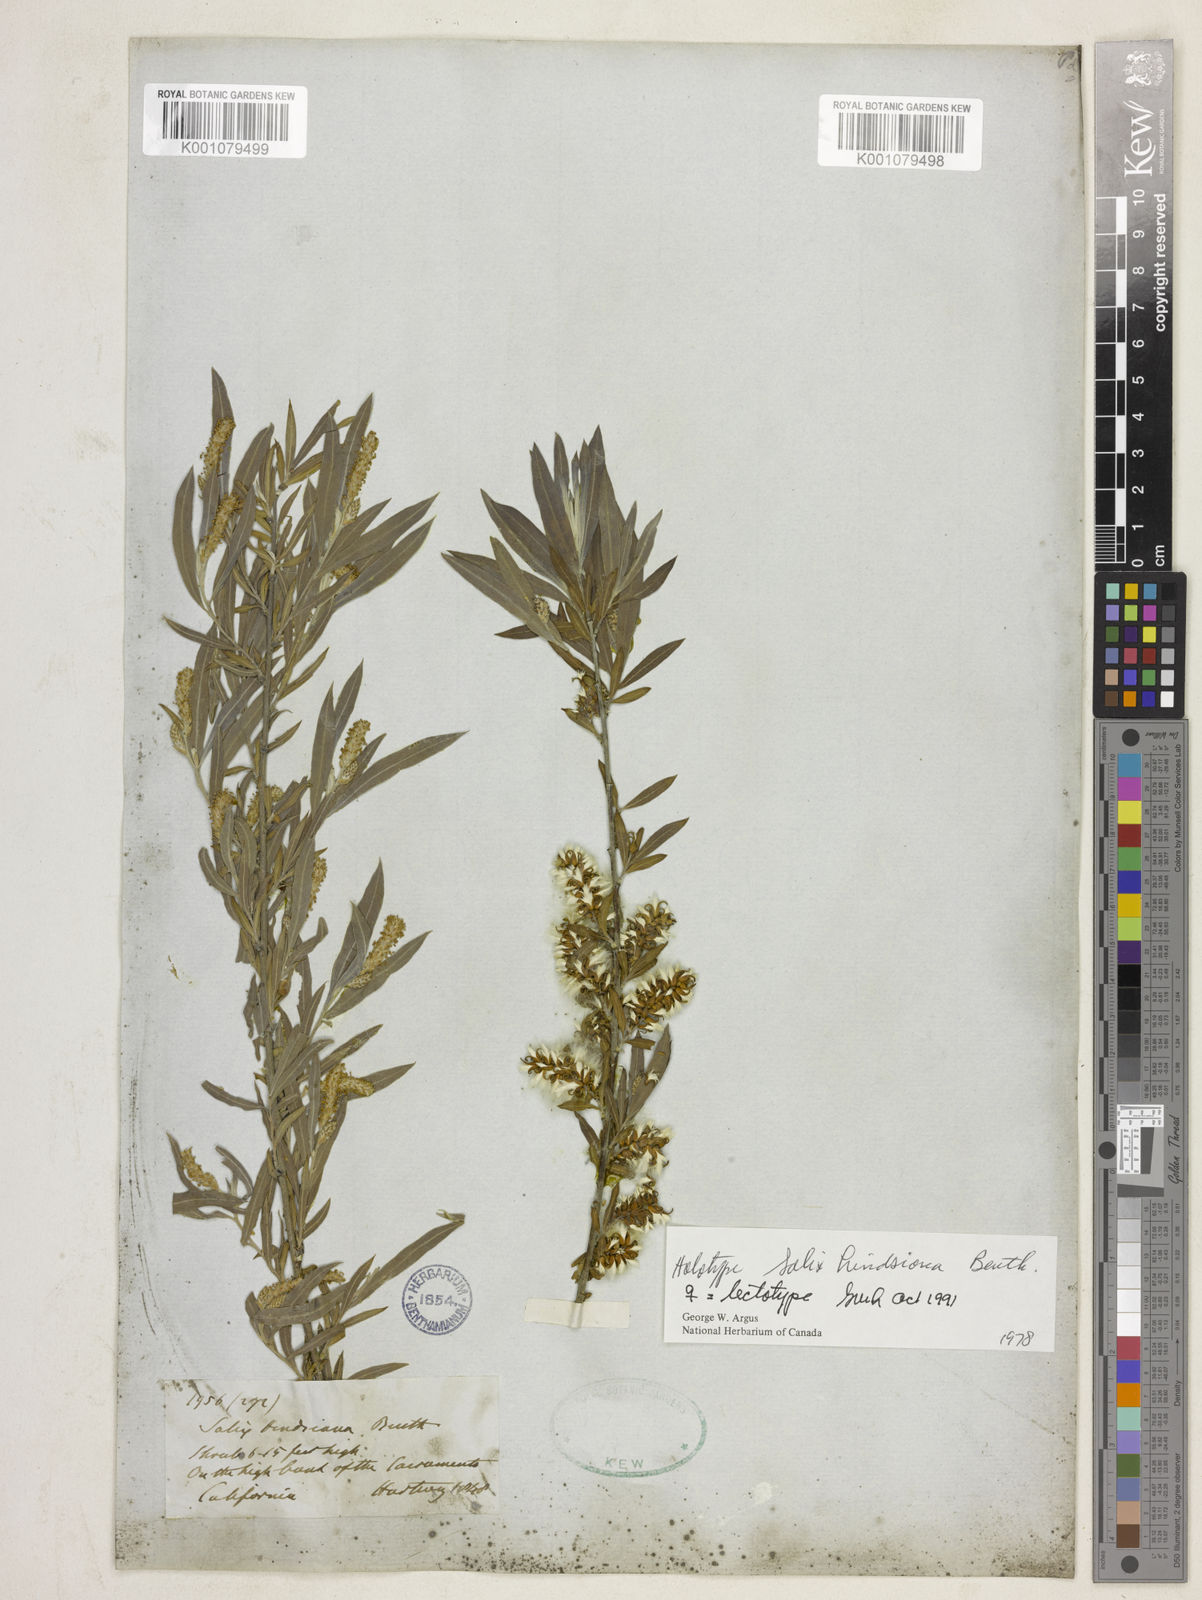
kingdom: Plantae
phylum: Tracheophyta
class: Magnoliopsida
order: Malpighiales
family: Salicaceae
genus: Salix
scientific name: Salix exigua
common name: Coyote willow
